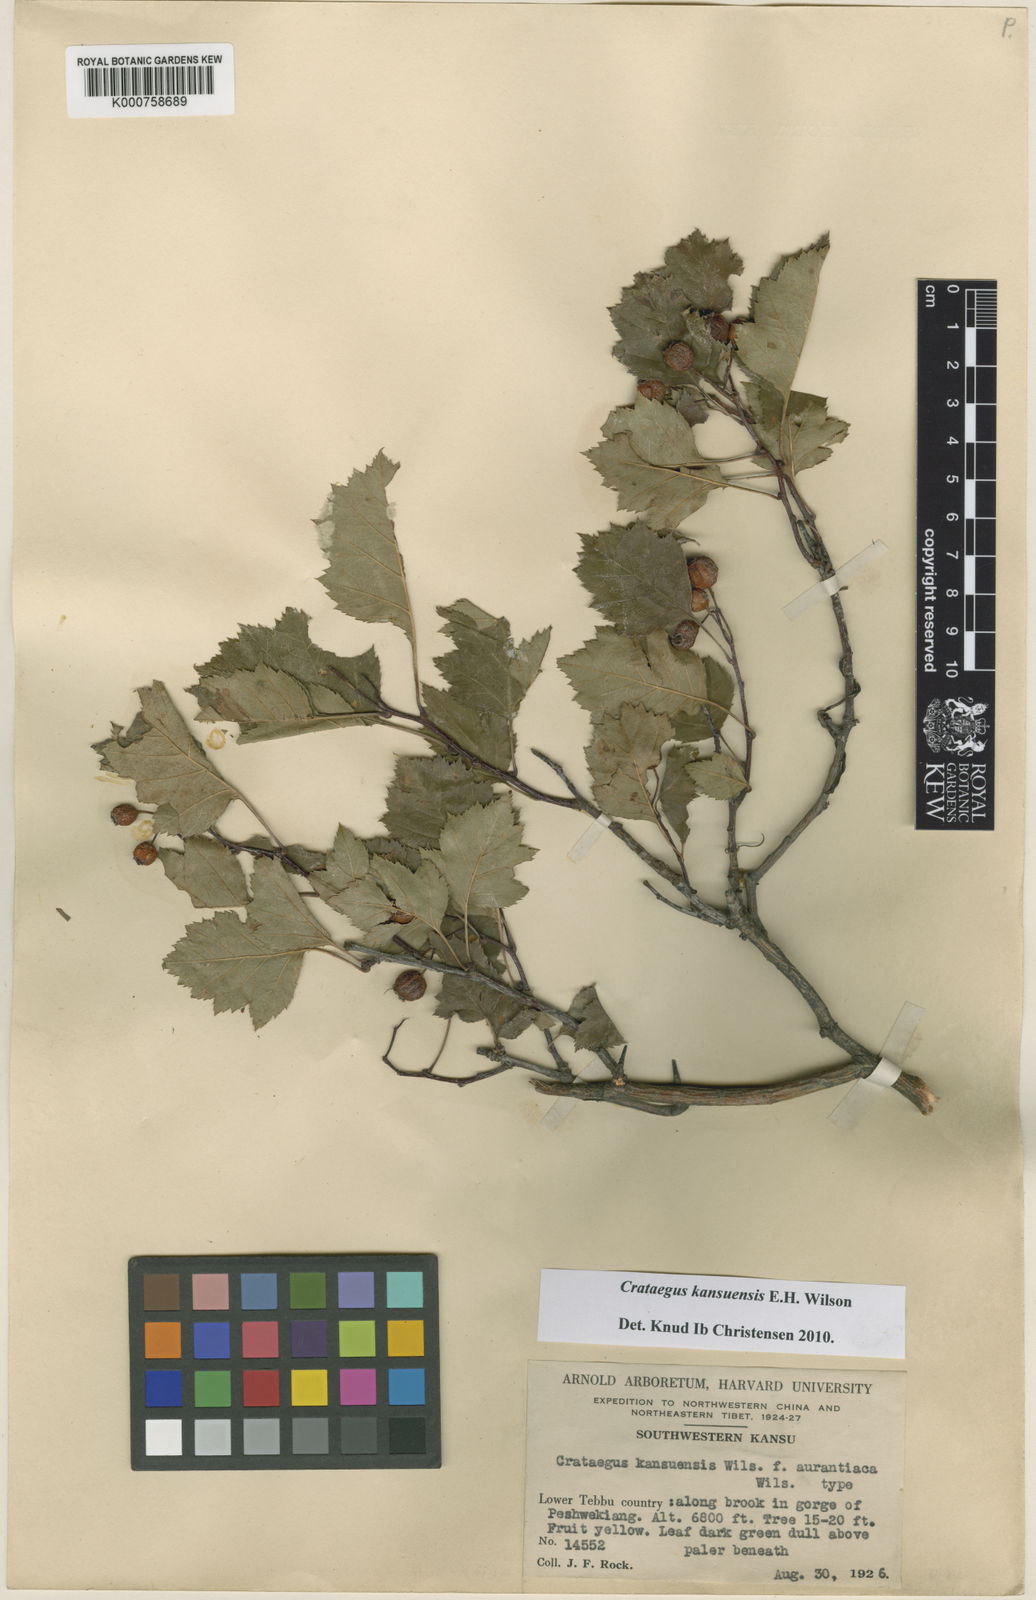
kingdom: Plantae
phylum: Tracheophyta
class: Magnoliopsida
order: Rosales
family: Rosaceae
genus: Crataegus
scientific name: Crataegus kansuensis
